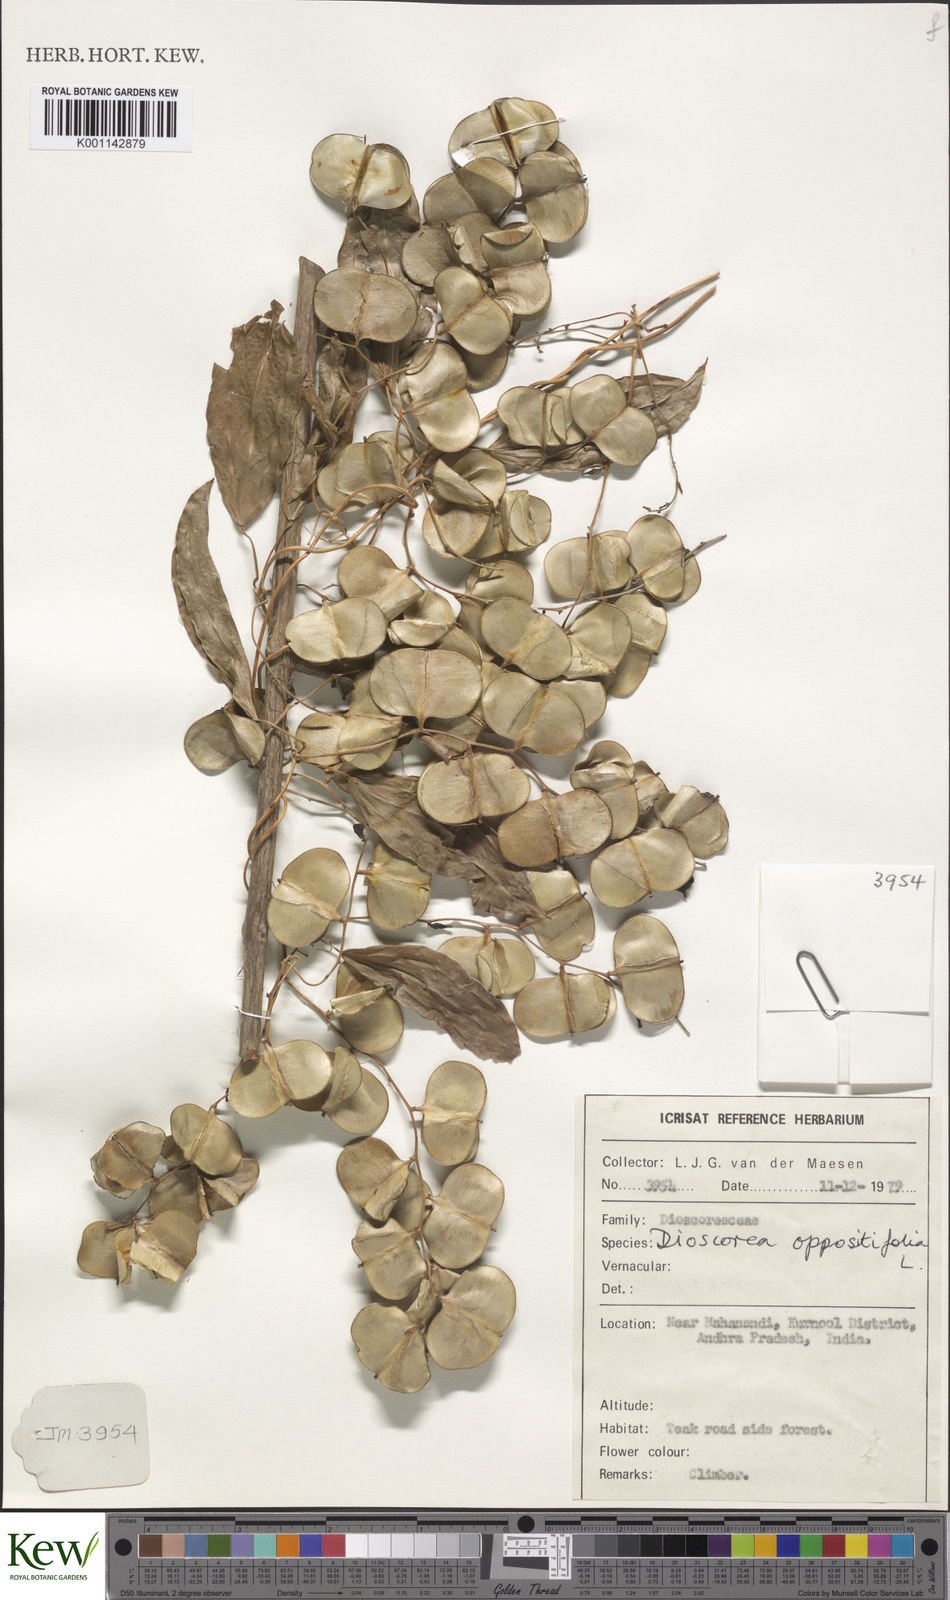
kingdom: Plantae
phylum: Tracheophyta
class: Liliopsida
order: Dioscoreales
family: Dioscoreaceae
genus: Dioscorea
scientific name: Dioscorea oppositifolia
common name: Chinese yam
